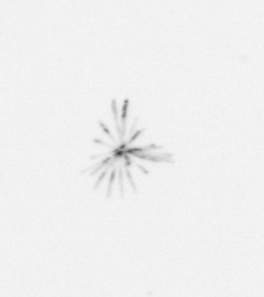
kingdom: Chromista
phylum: Ochrophyta
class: Bacillariophyceae
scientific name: Bacillariophyceae
